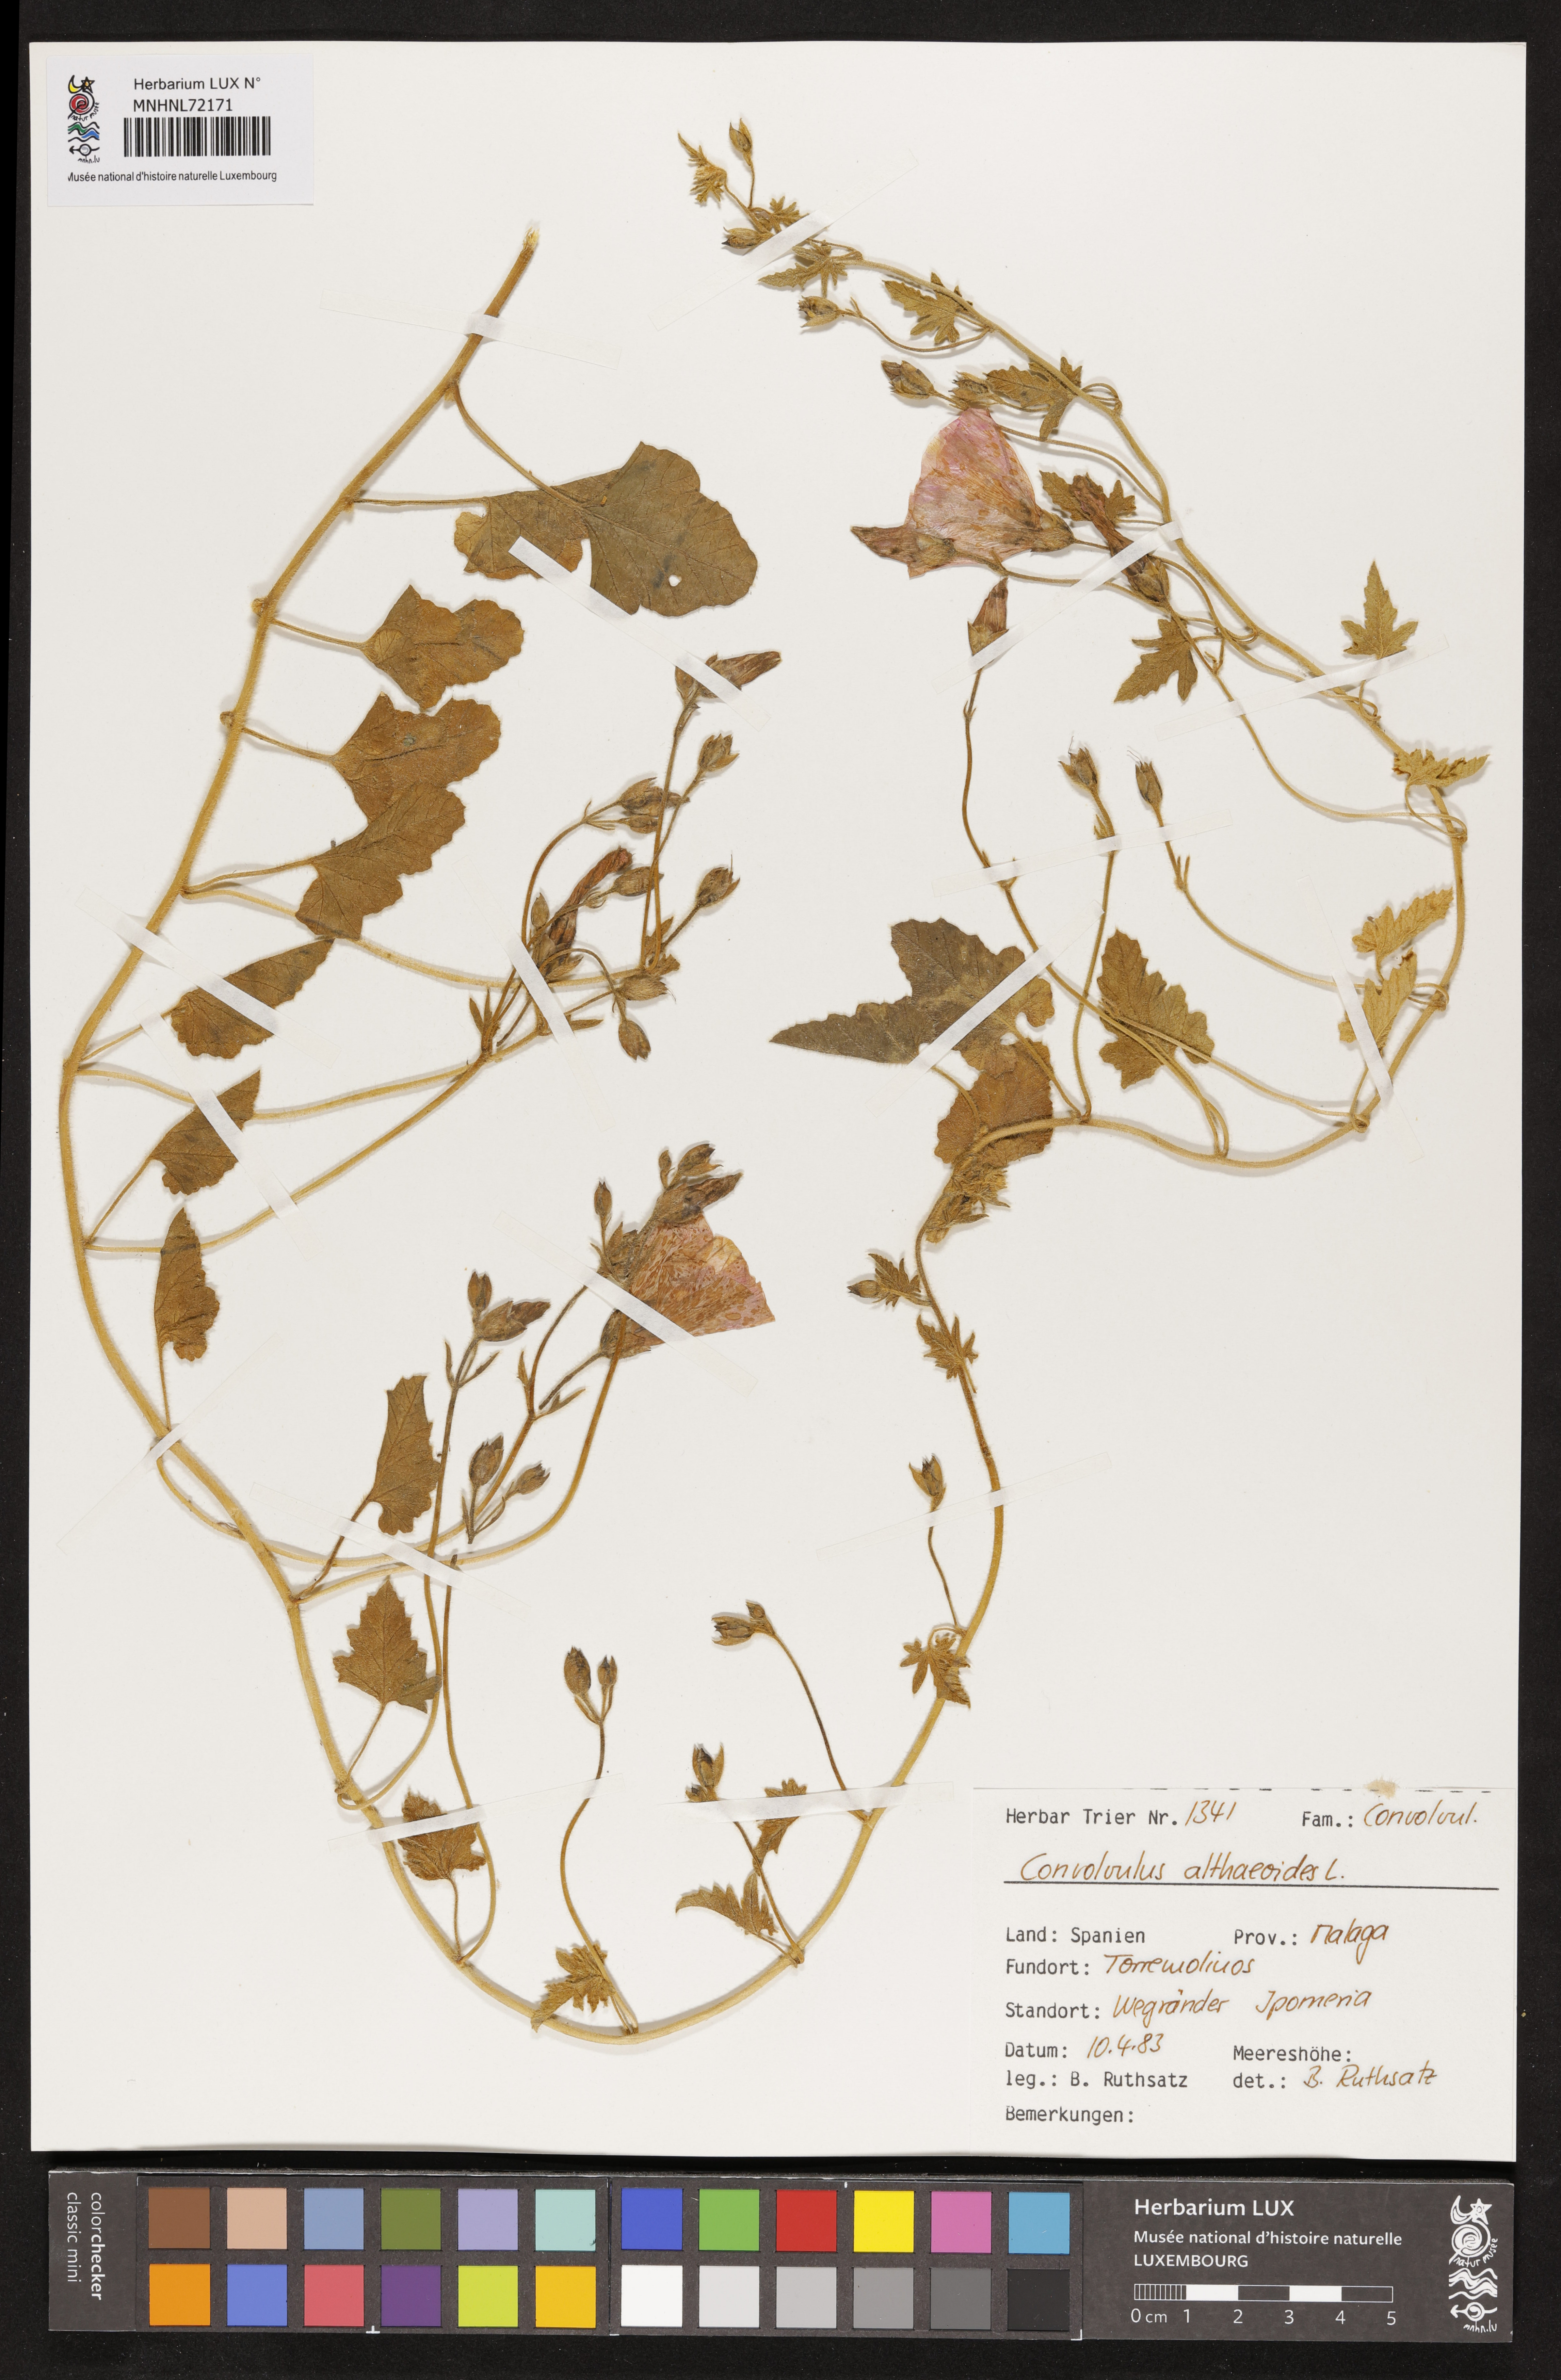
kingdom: Plantae
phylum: Tracheophyta
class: Magnoliopsida
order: Solanales
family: Convolvulaceae
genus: Convolvulus
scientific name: Convolvulus althaeoides
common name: Mallow bindweed
